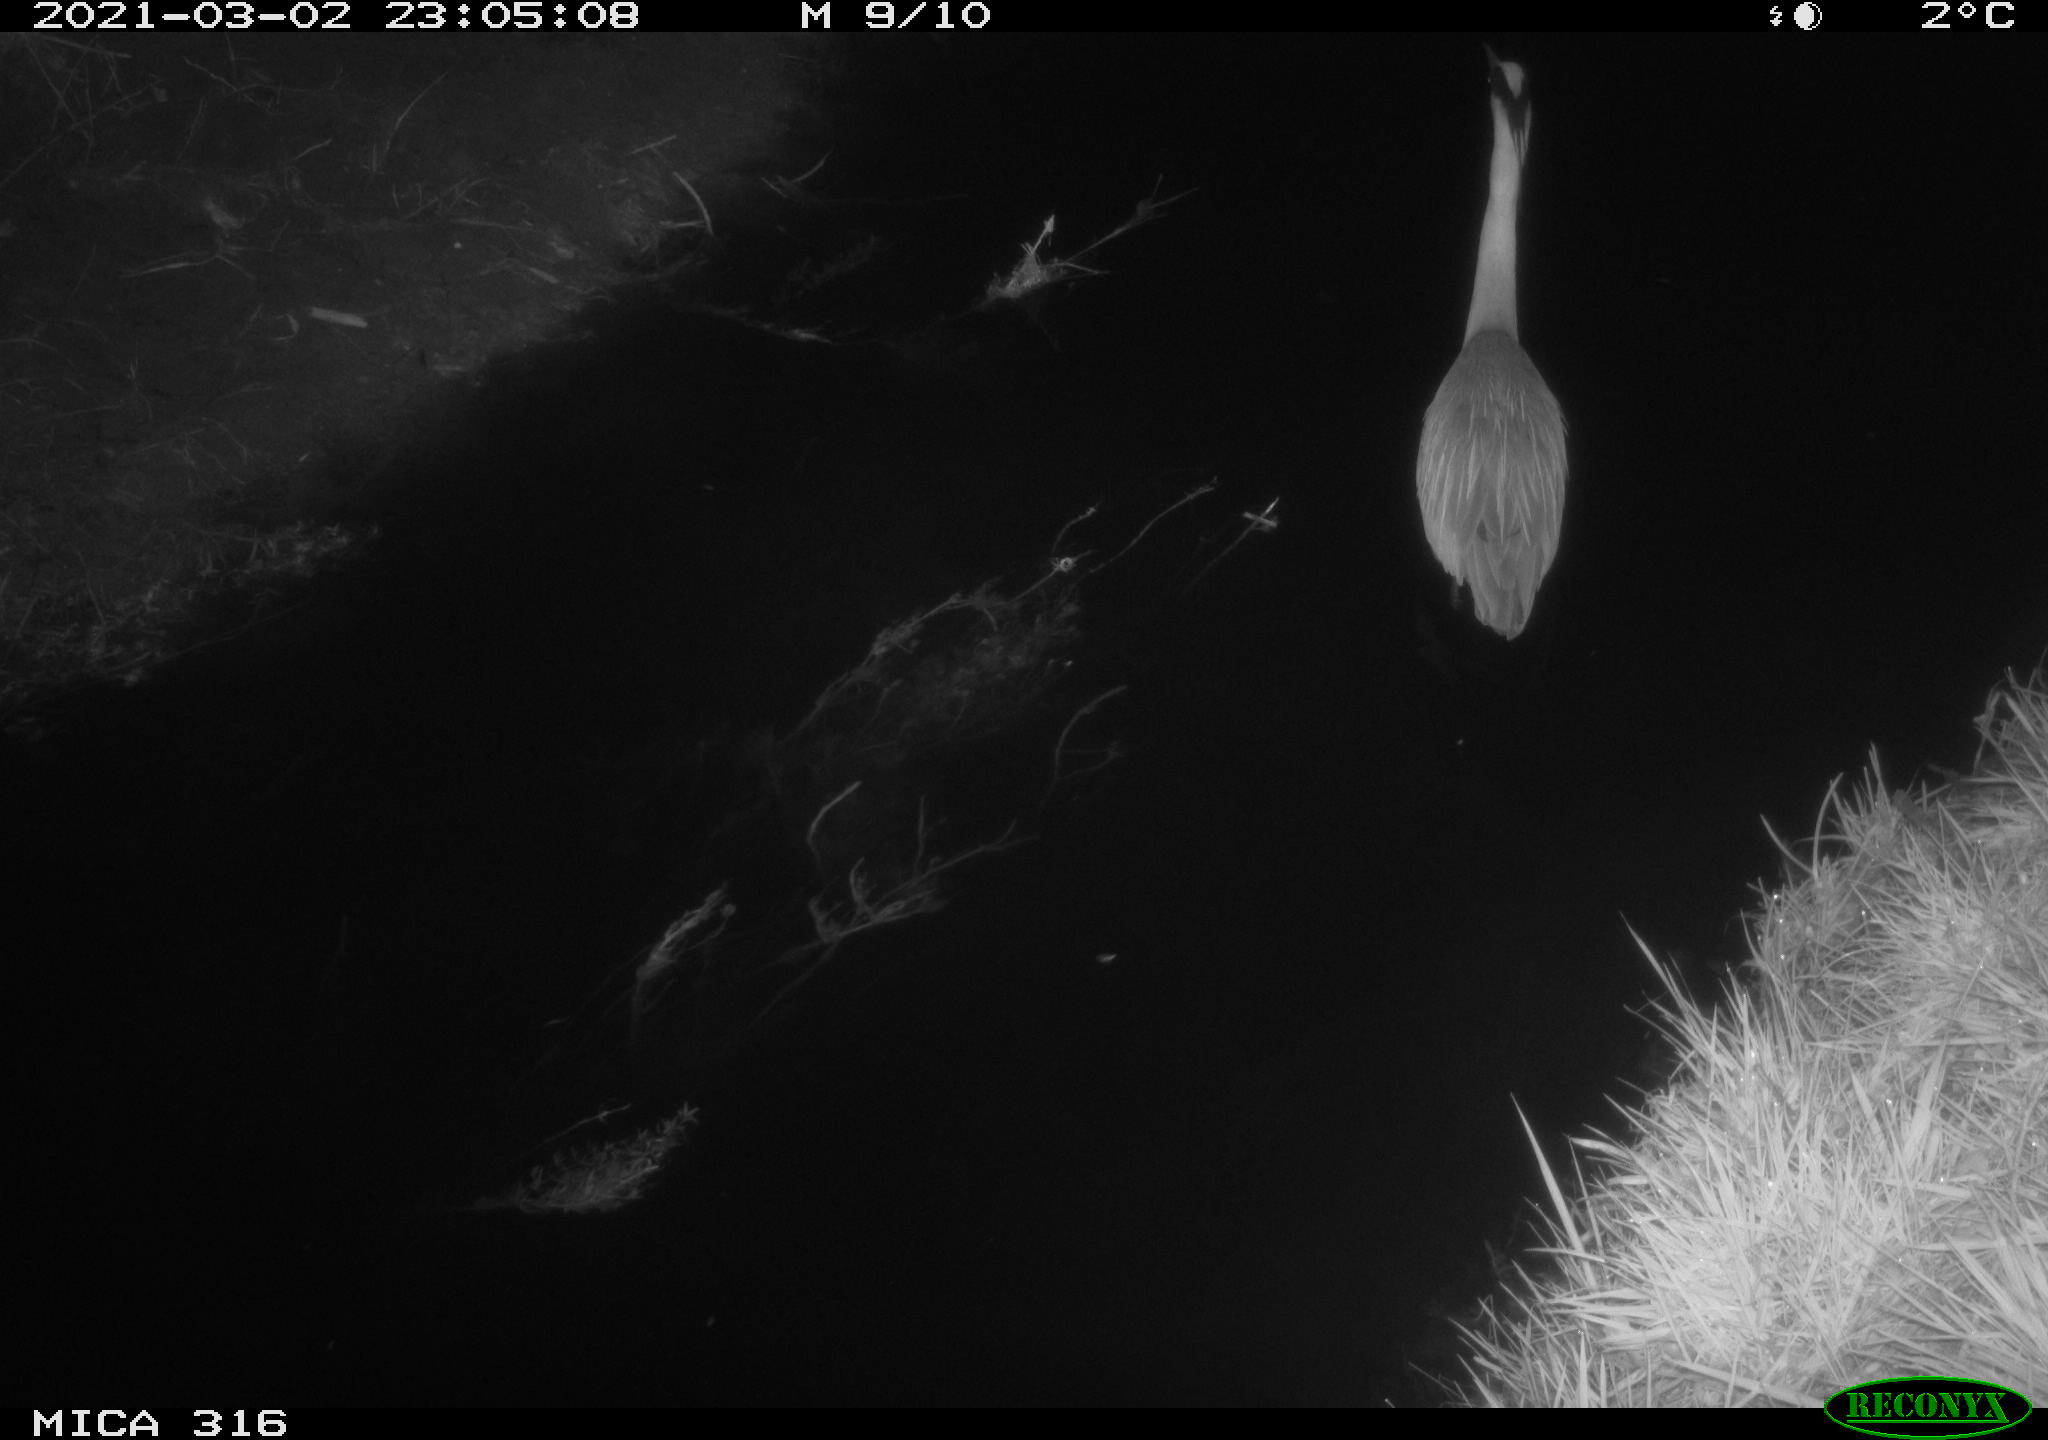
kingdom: Animalia
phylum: Chordata
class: Aves
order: Pelecaniformes
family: Ardeidae
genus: Ardea
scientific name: Ardea
